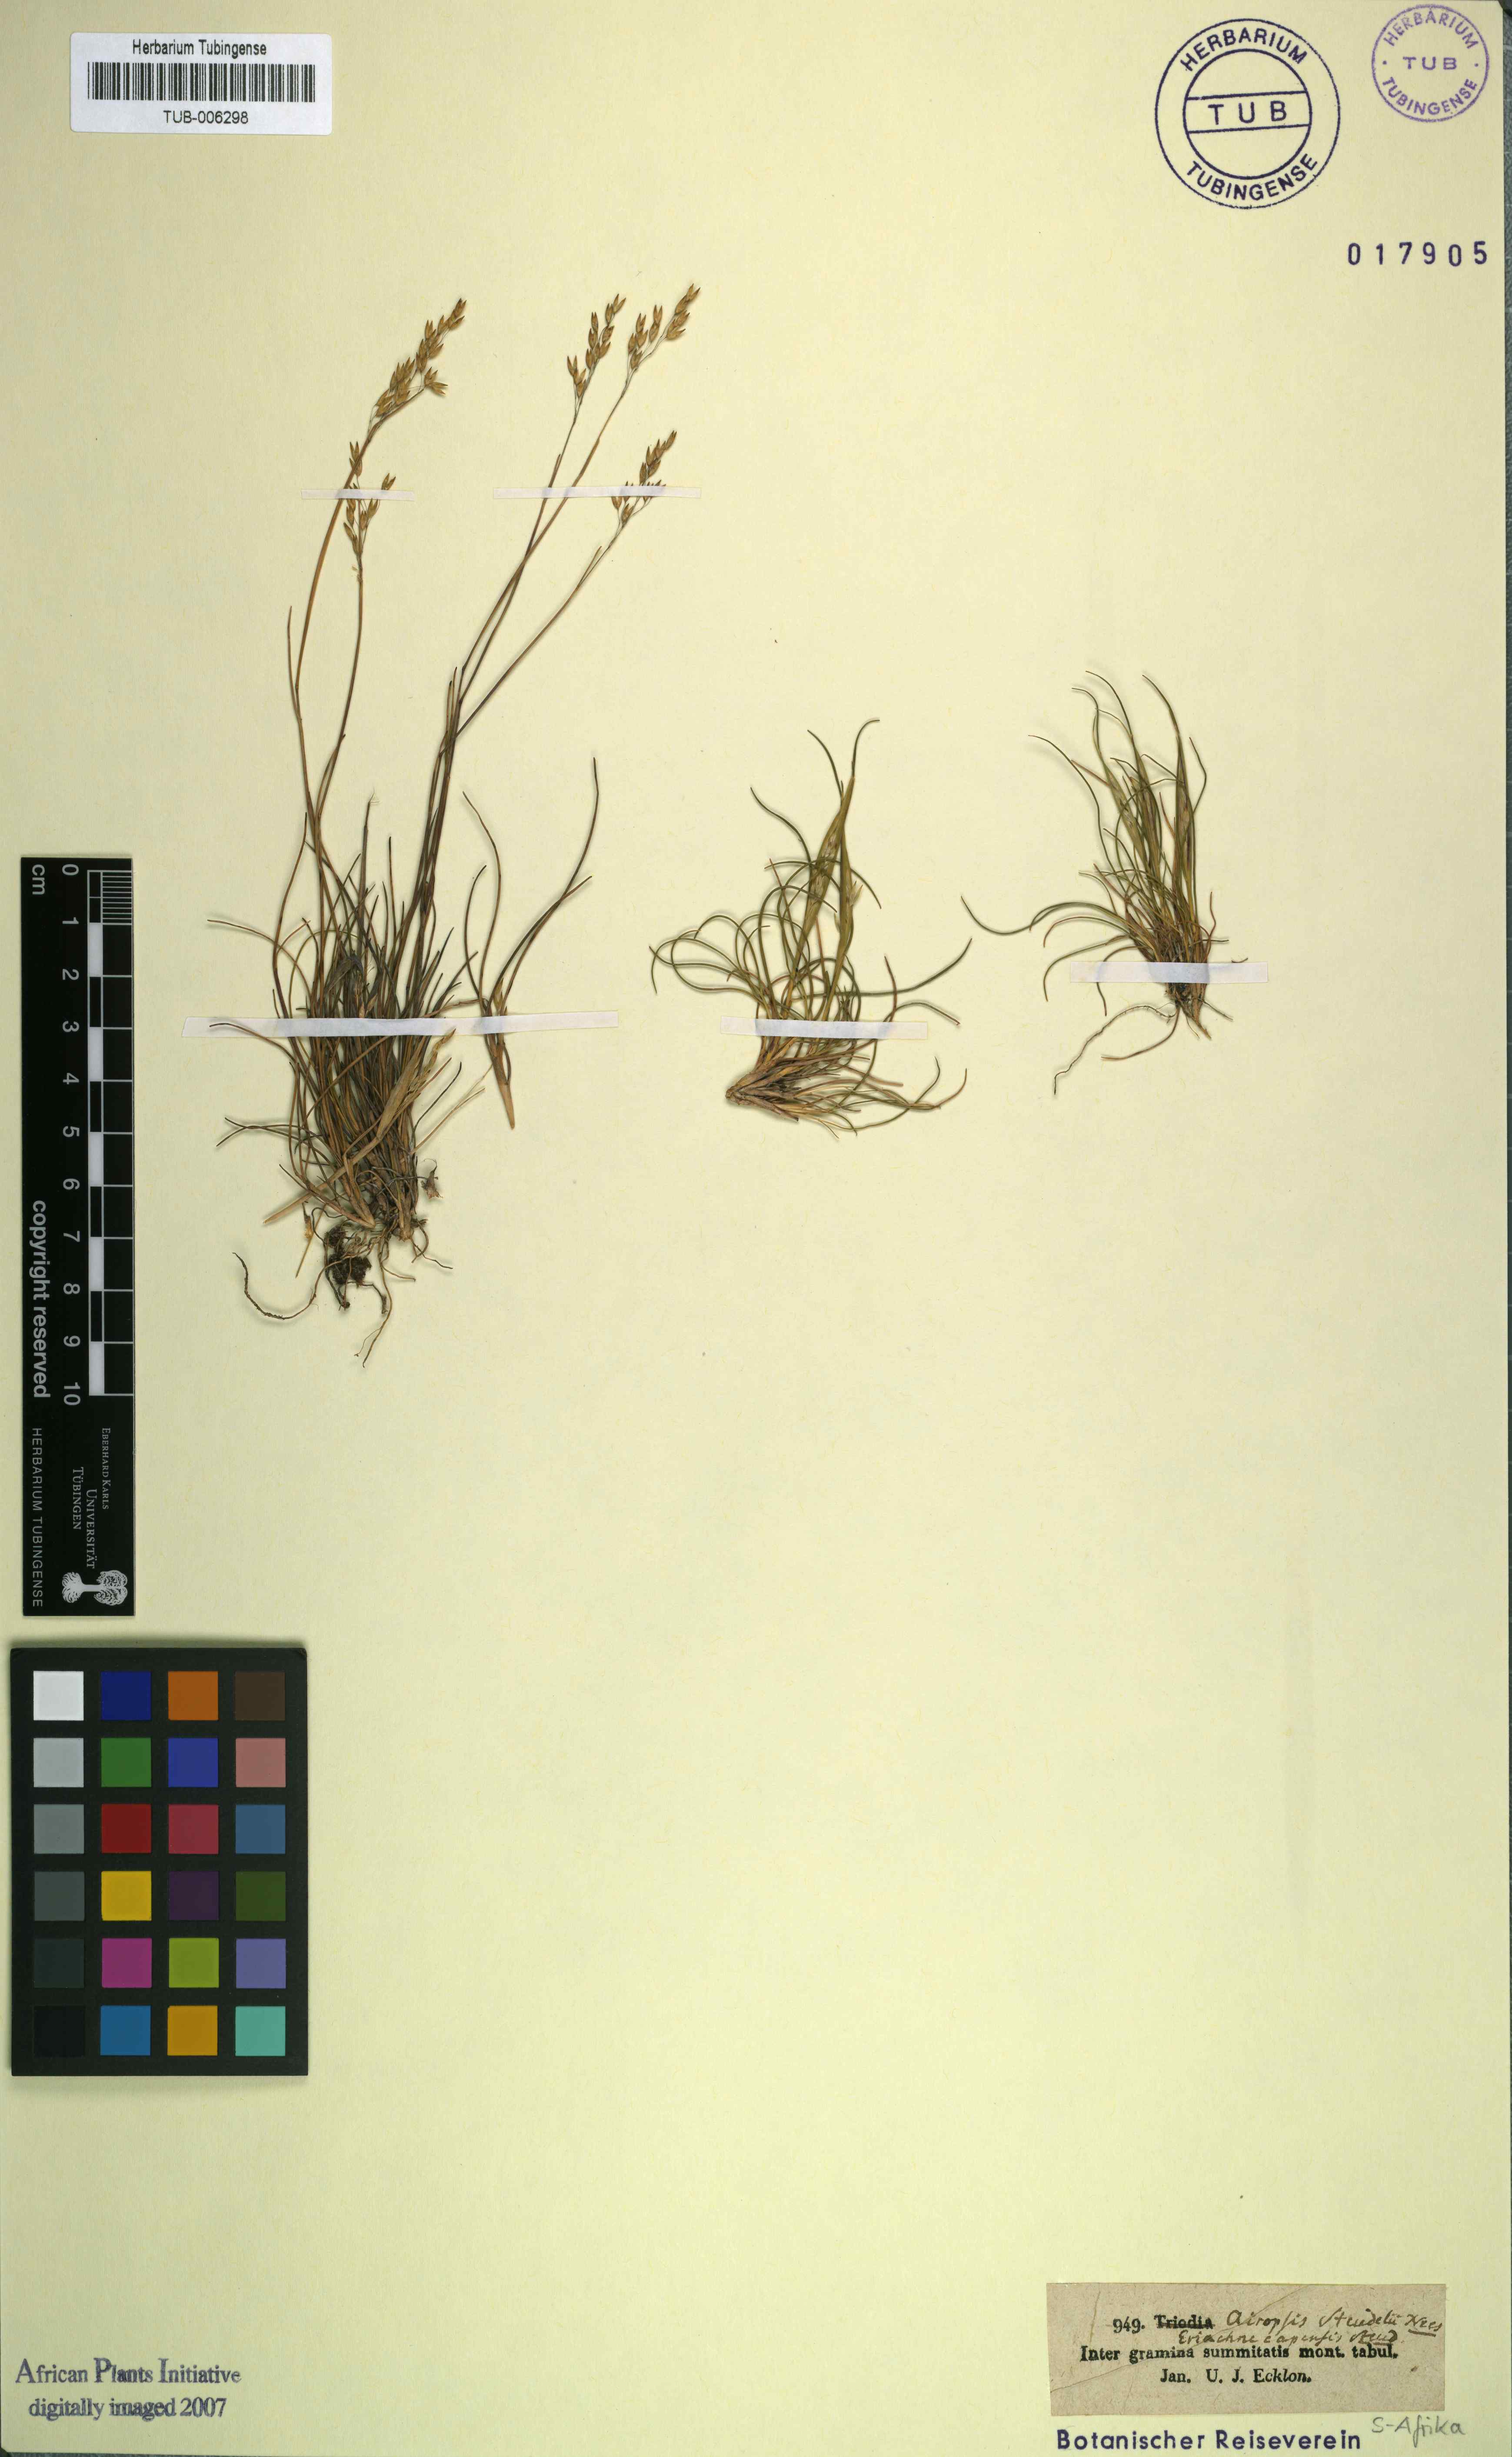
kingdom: Plantae
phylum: Tracheophyta
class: Liliopsida
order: Poales
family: Poaceae
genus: Pentameris
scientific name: Pentameris malouinensis
